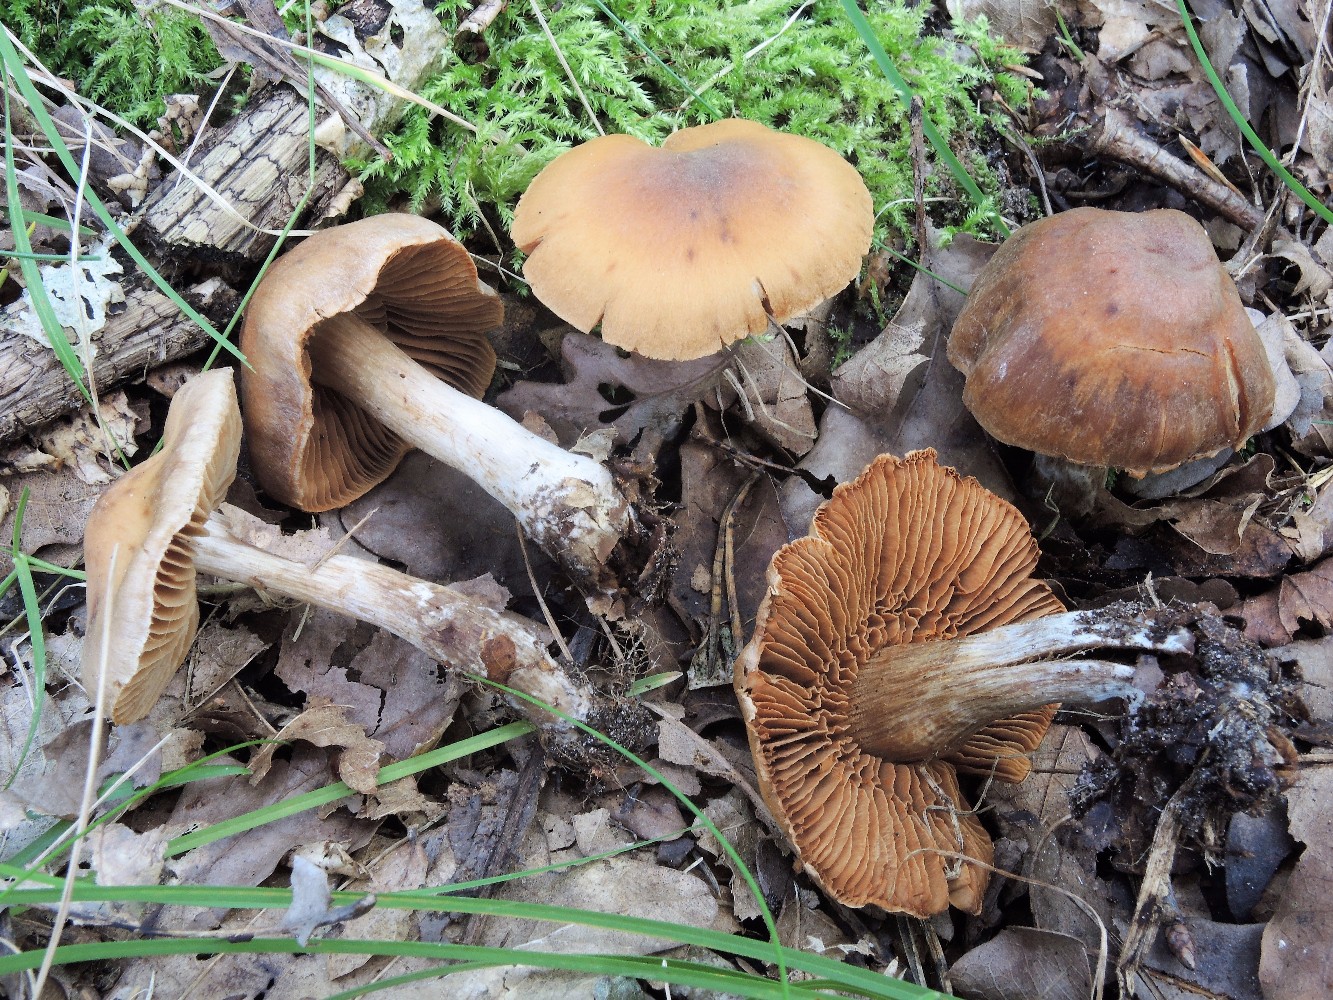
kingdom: Fungi
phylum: Basidiomycota
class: Agaricomycetes
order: Agaricales
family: Cortinariaceae
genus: Cortinarius
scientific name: Cortinarius
